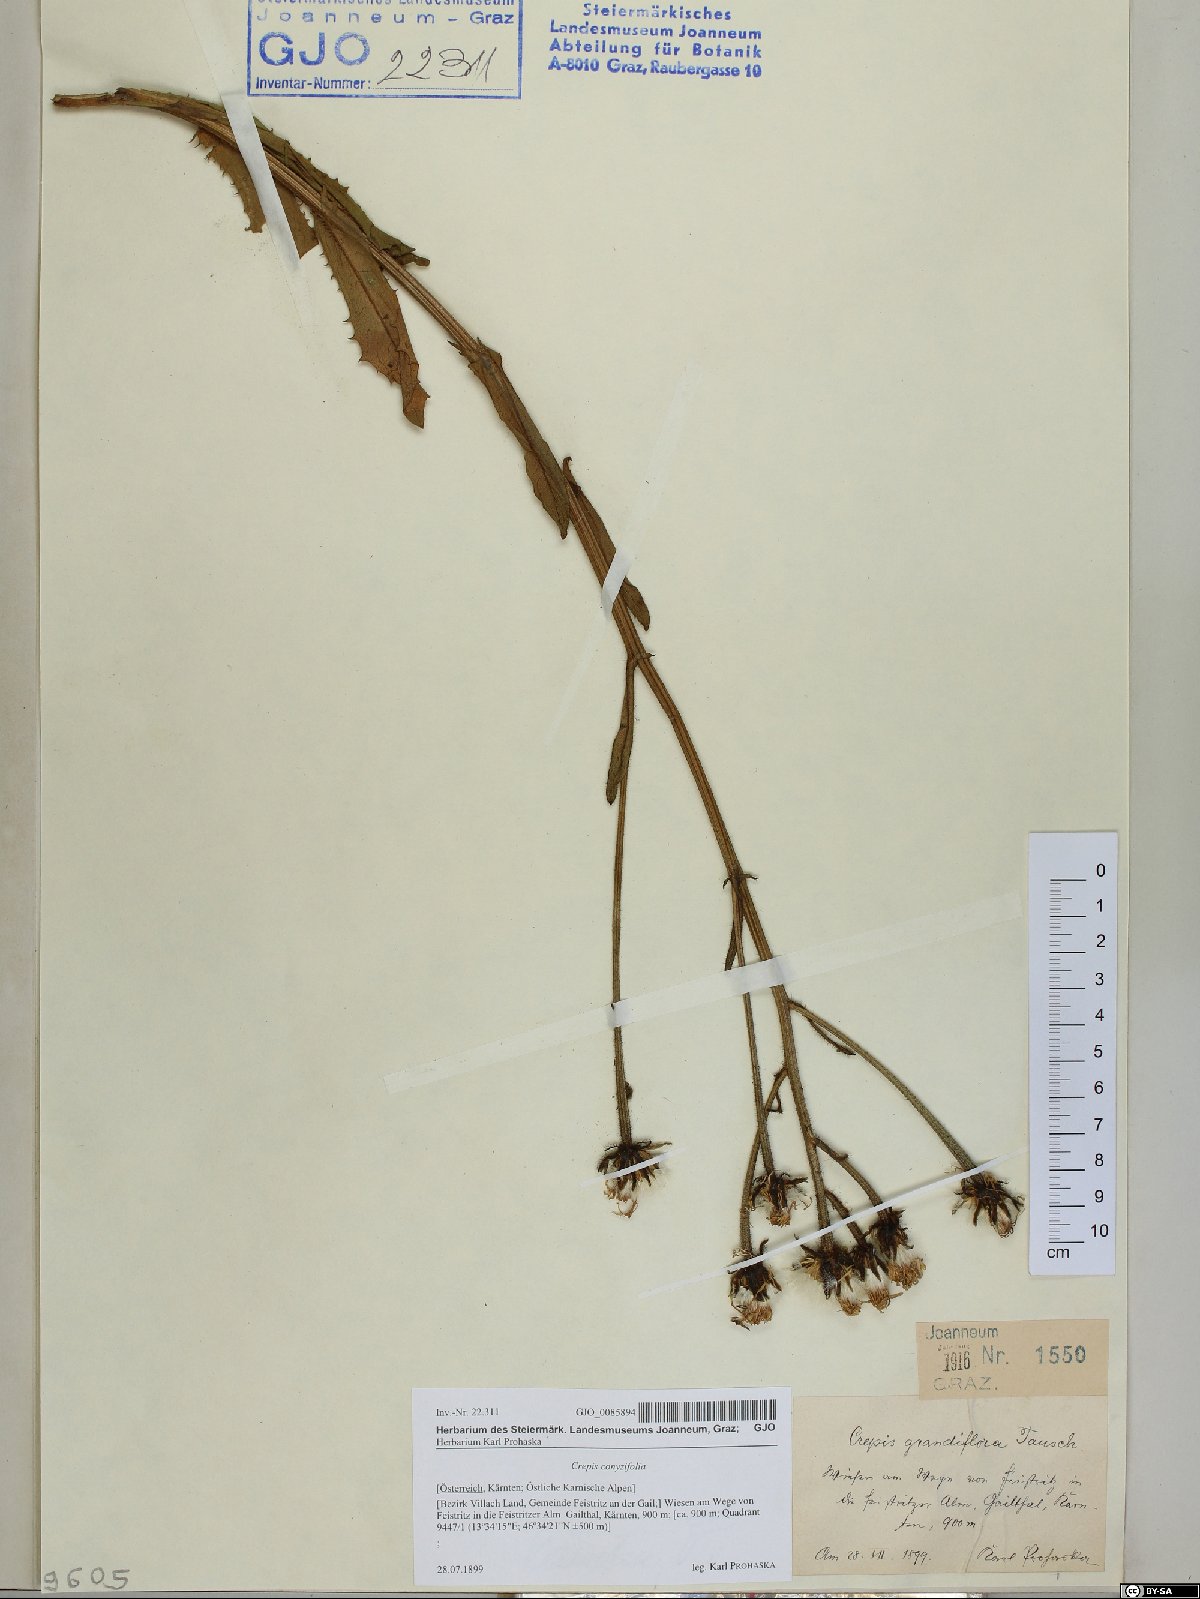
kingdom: Plantae
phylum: Tracheophyta
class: Magnoliopsida
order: Asterales
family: Asteraceae
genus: Crepis
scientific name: Crepis blattarioides
